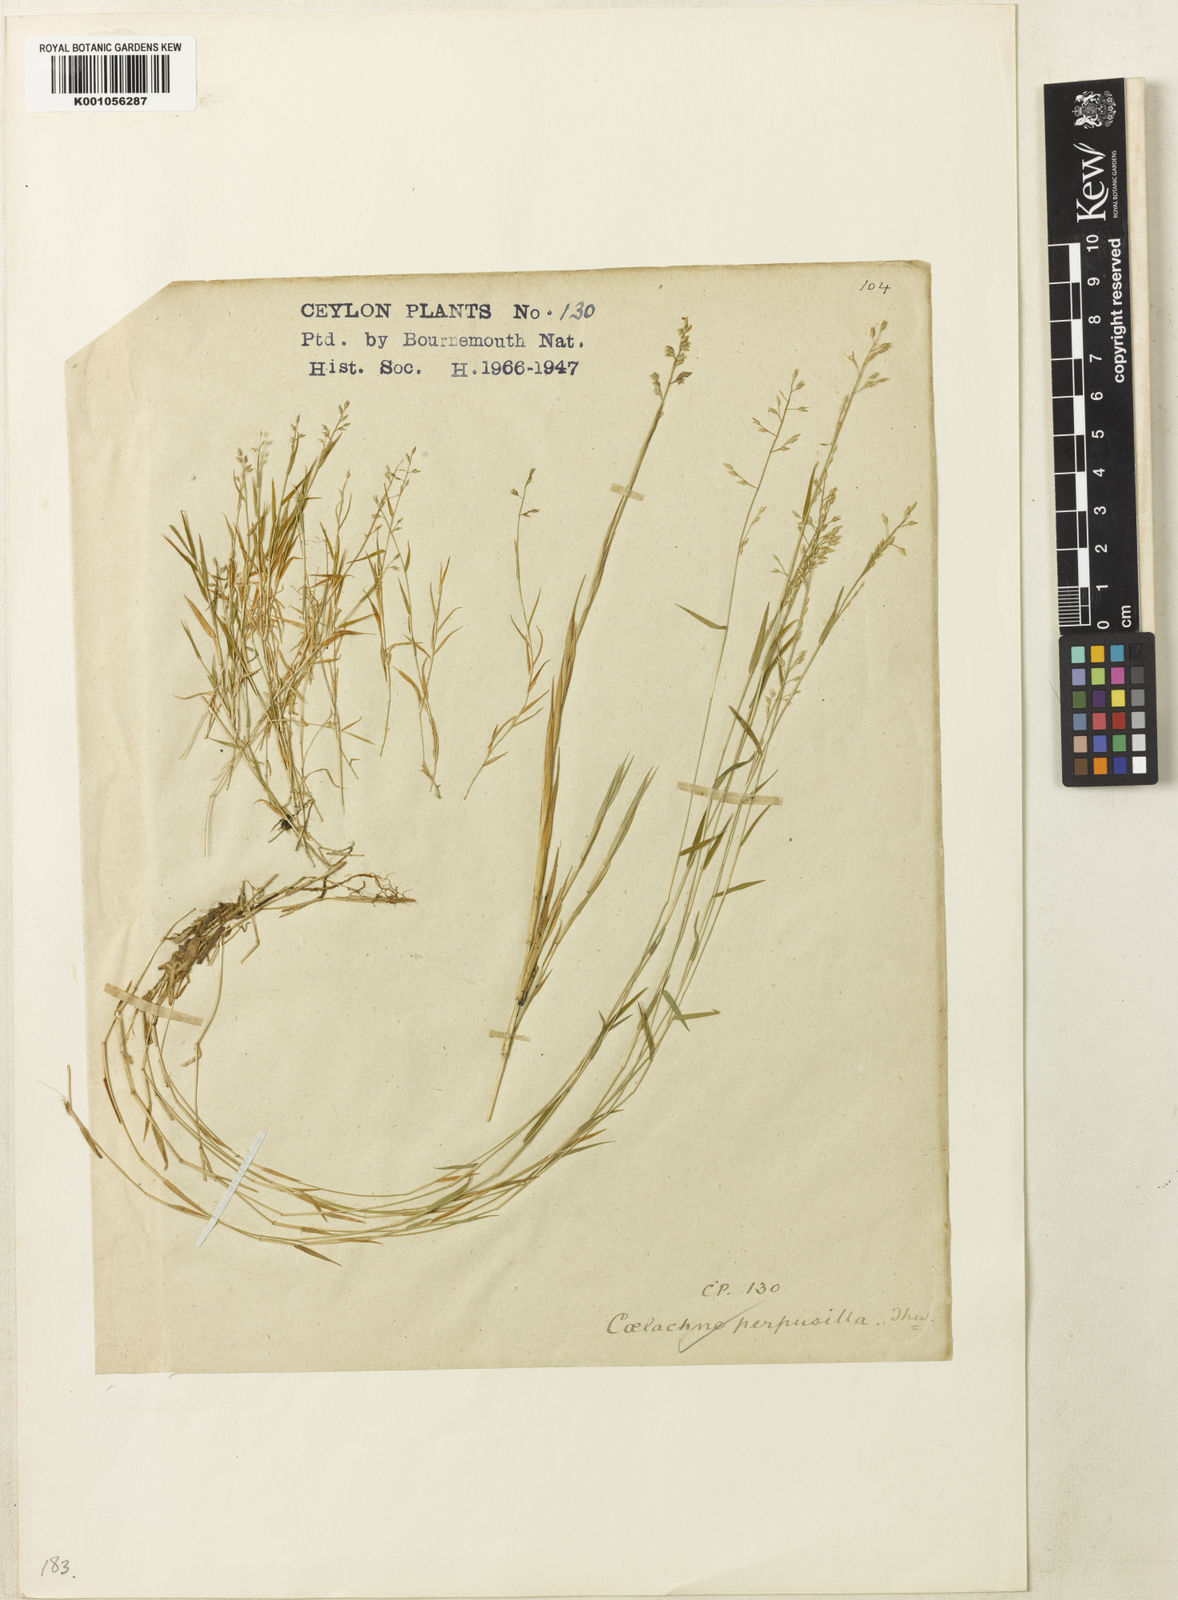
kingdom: Plantae
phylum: Tracheophyta
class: Liliopsida
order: Poales
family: Poaceae
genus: Coelachne
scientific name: Coelachne perpusilla
